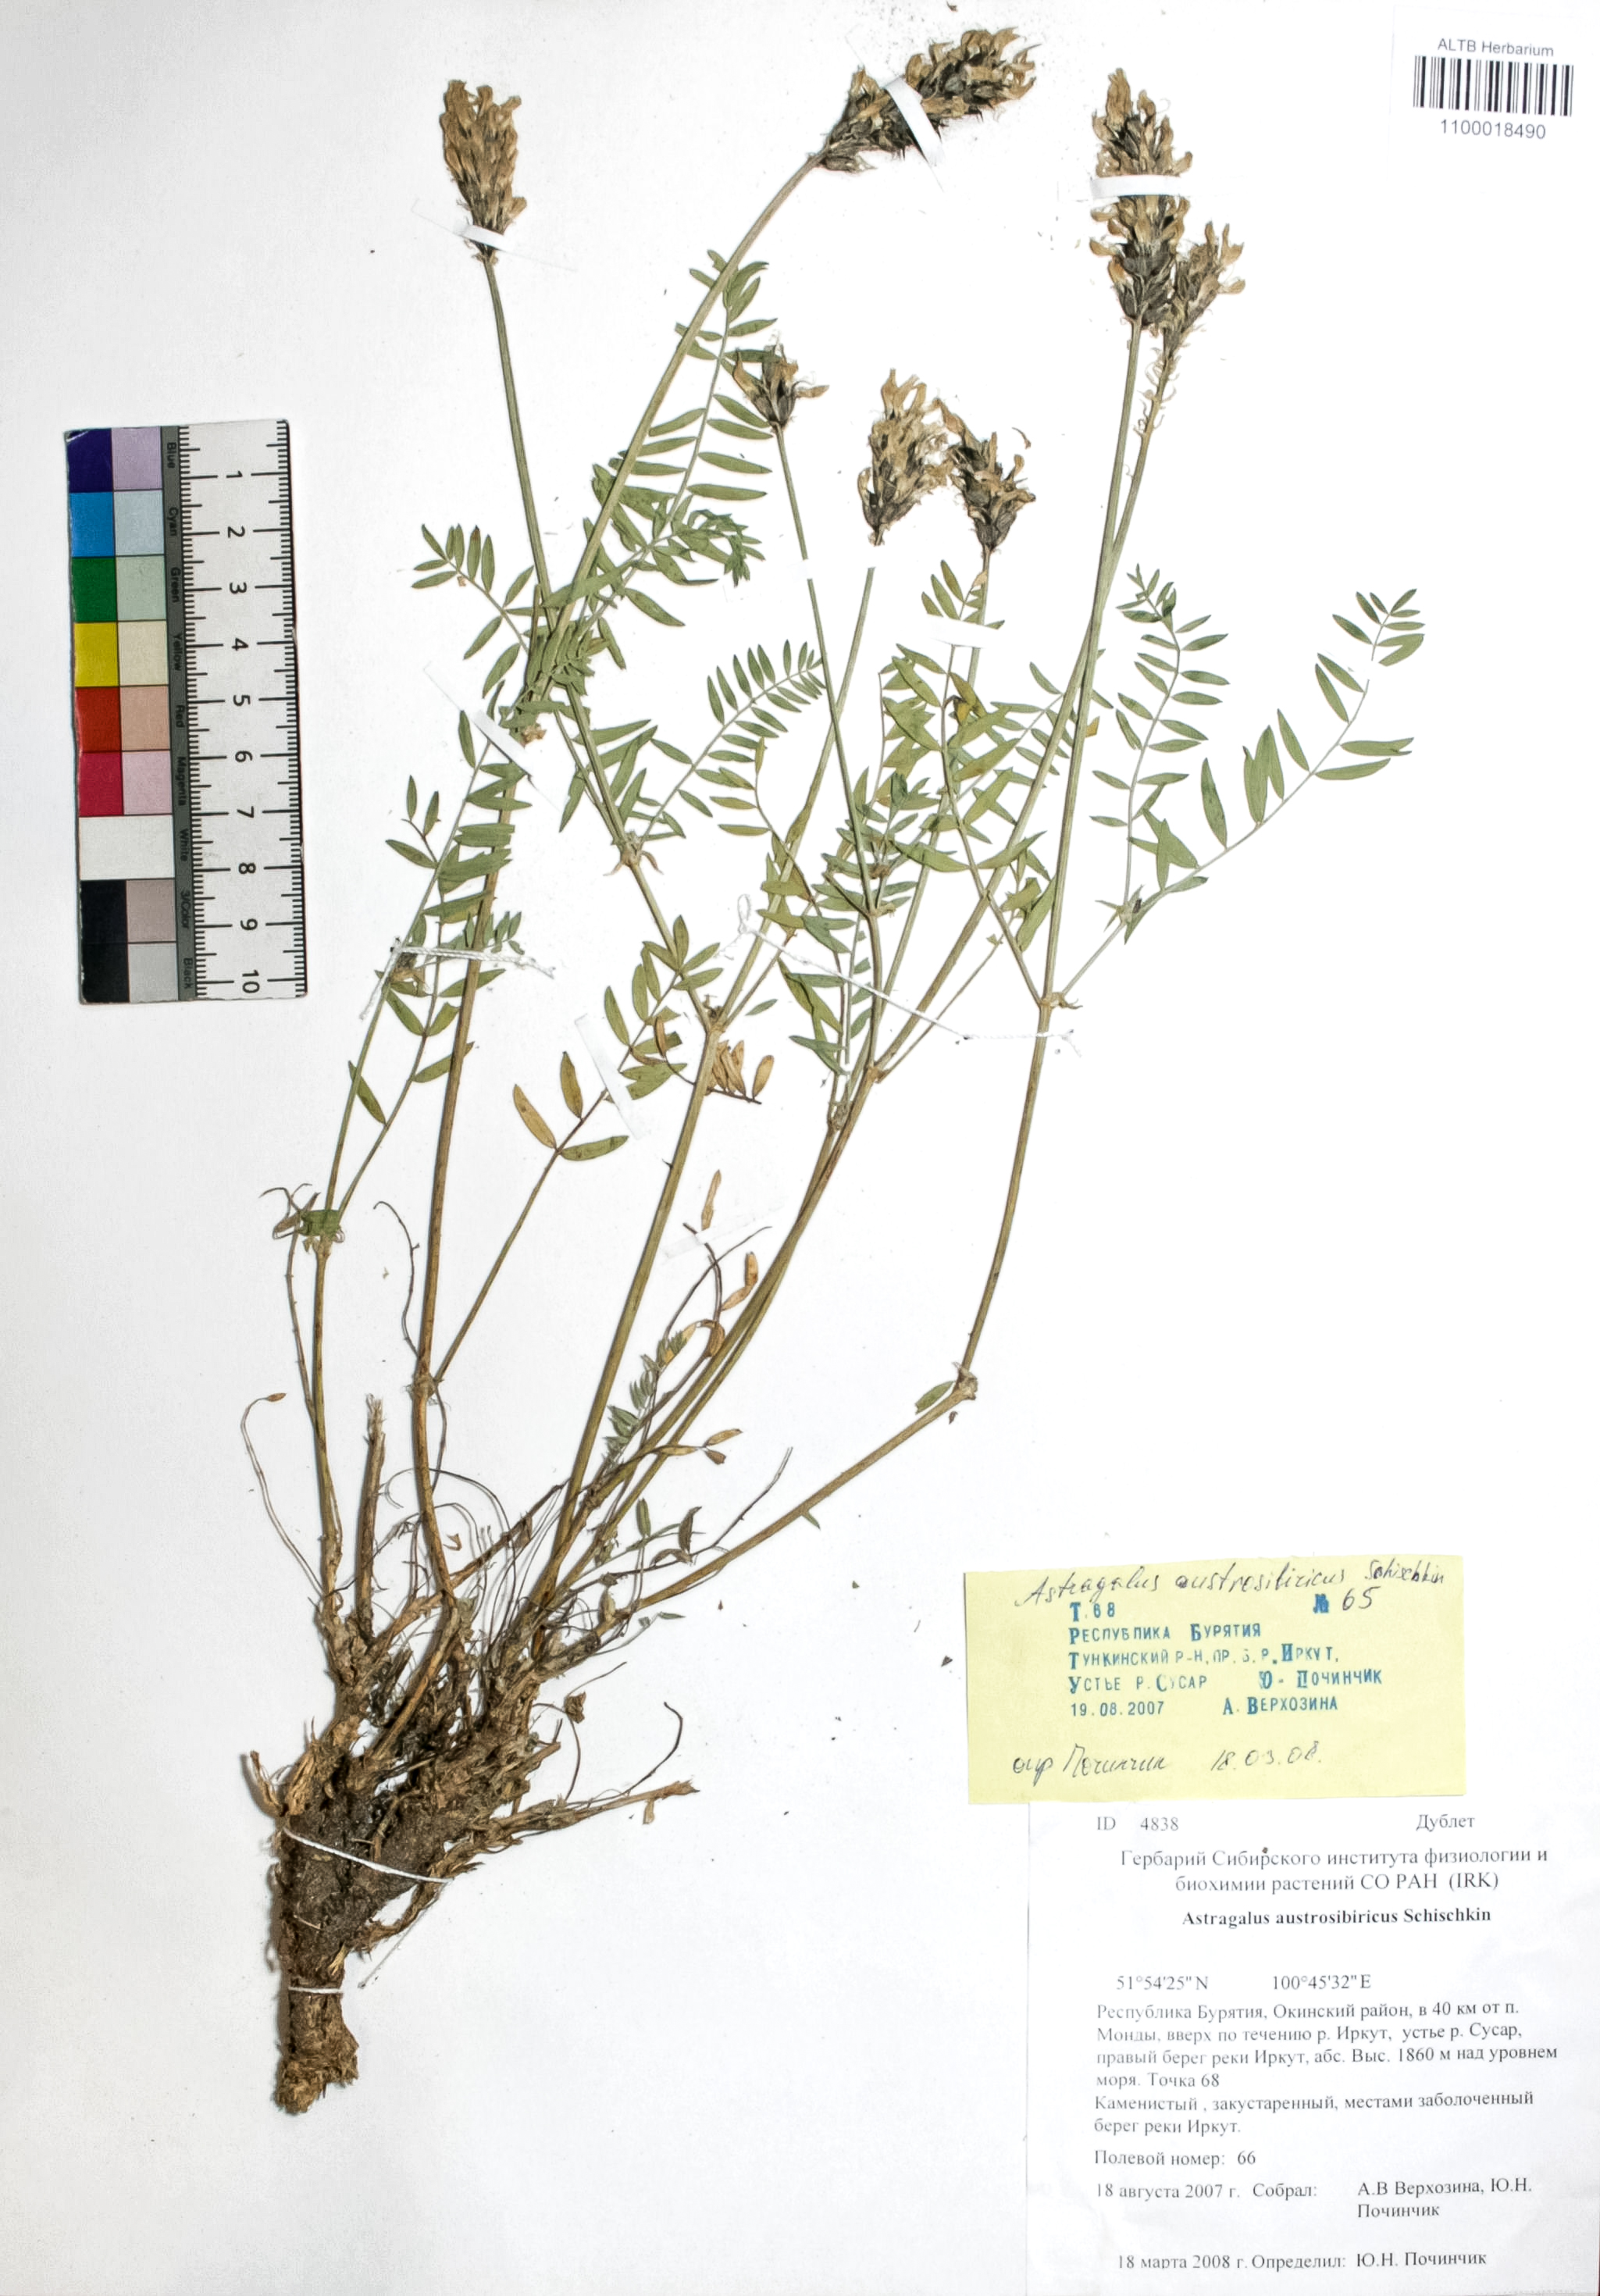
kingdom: Plantae
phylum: Tracheophyta
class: Magnoliopsida
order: Fabales
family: Fabaceae
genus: Astragalus
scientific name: Astragalus laxmannii
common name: Laxmann's milk-vetch
